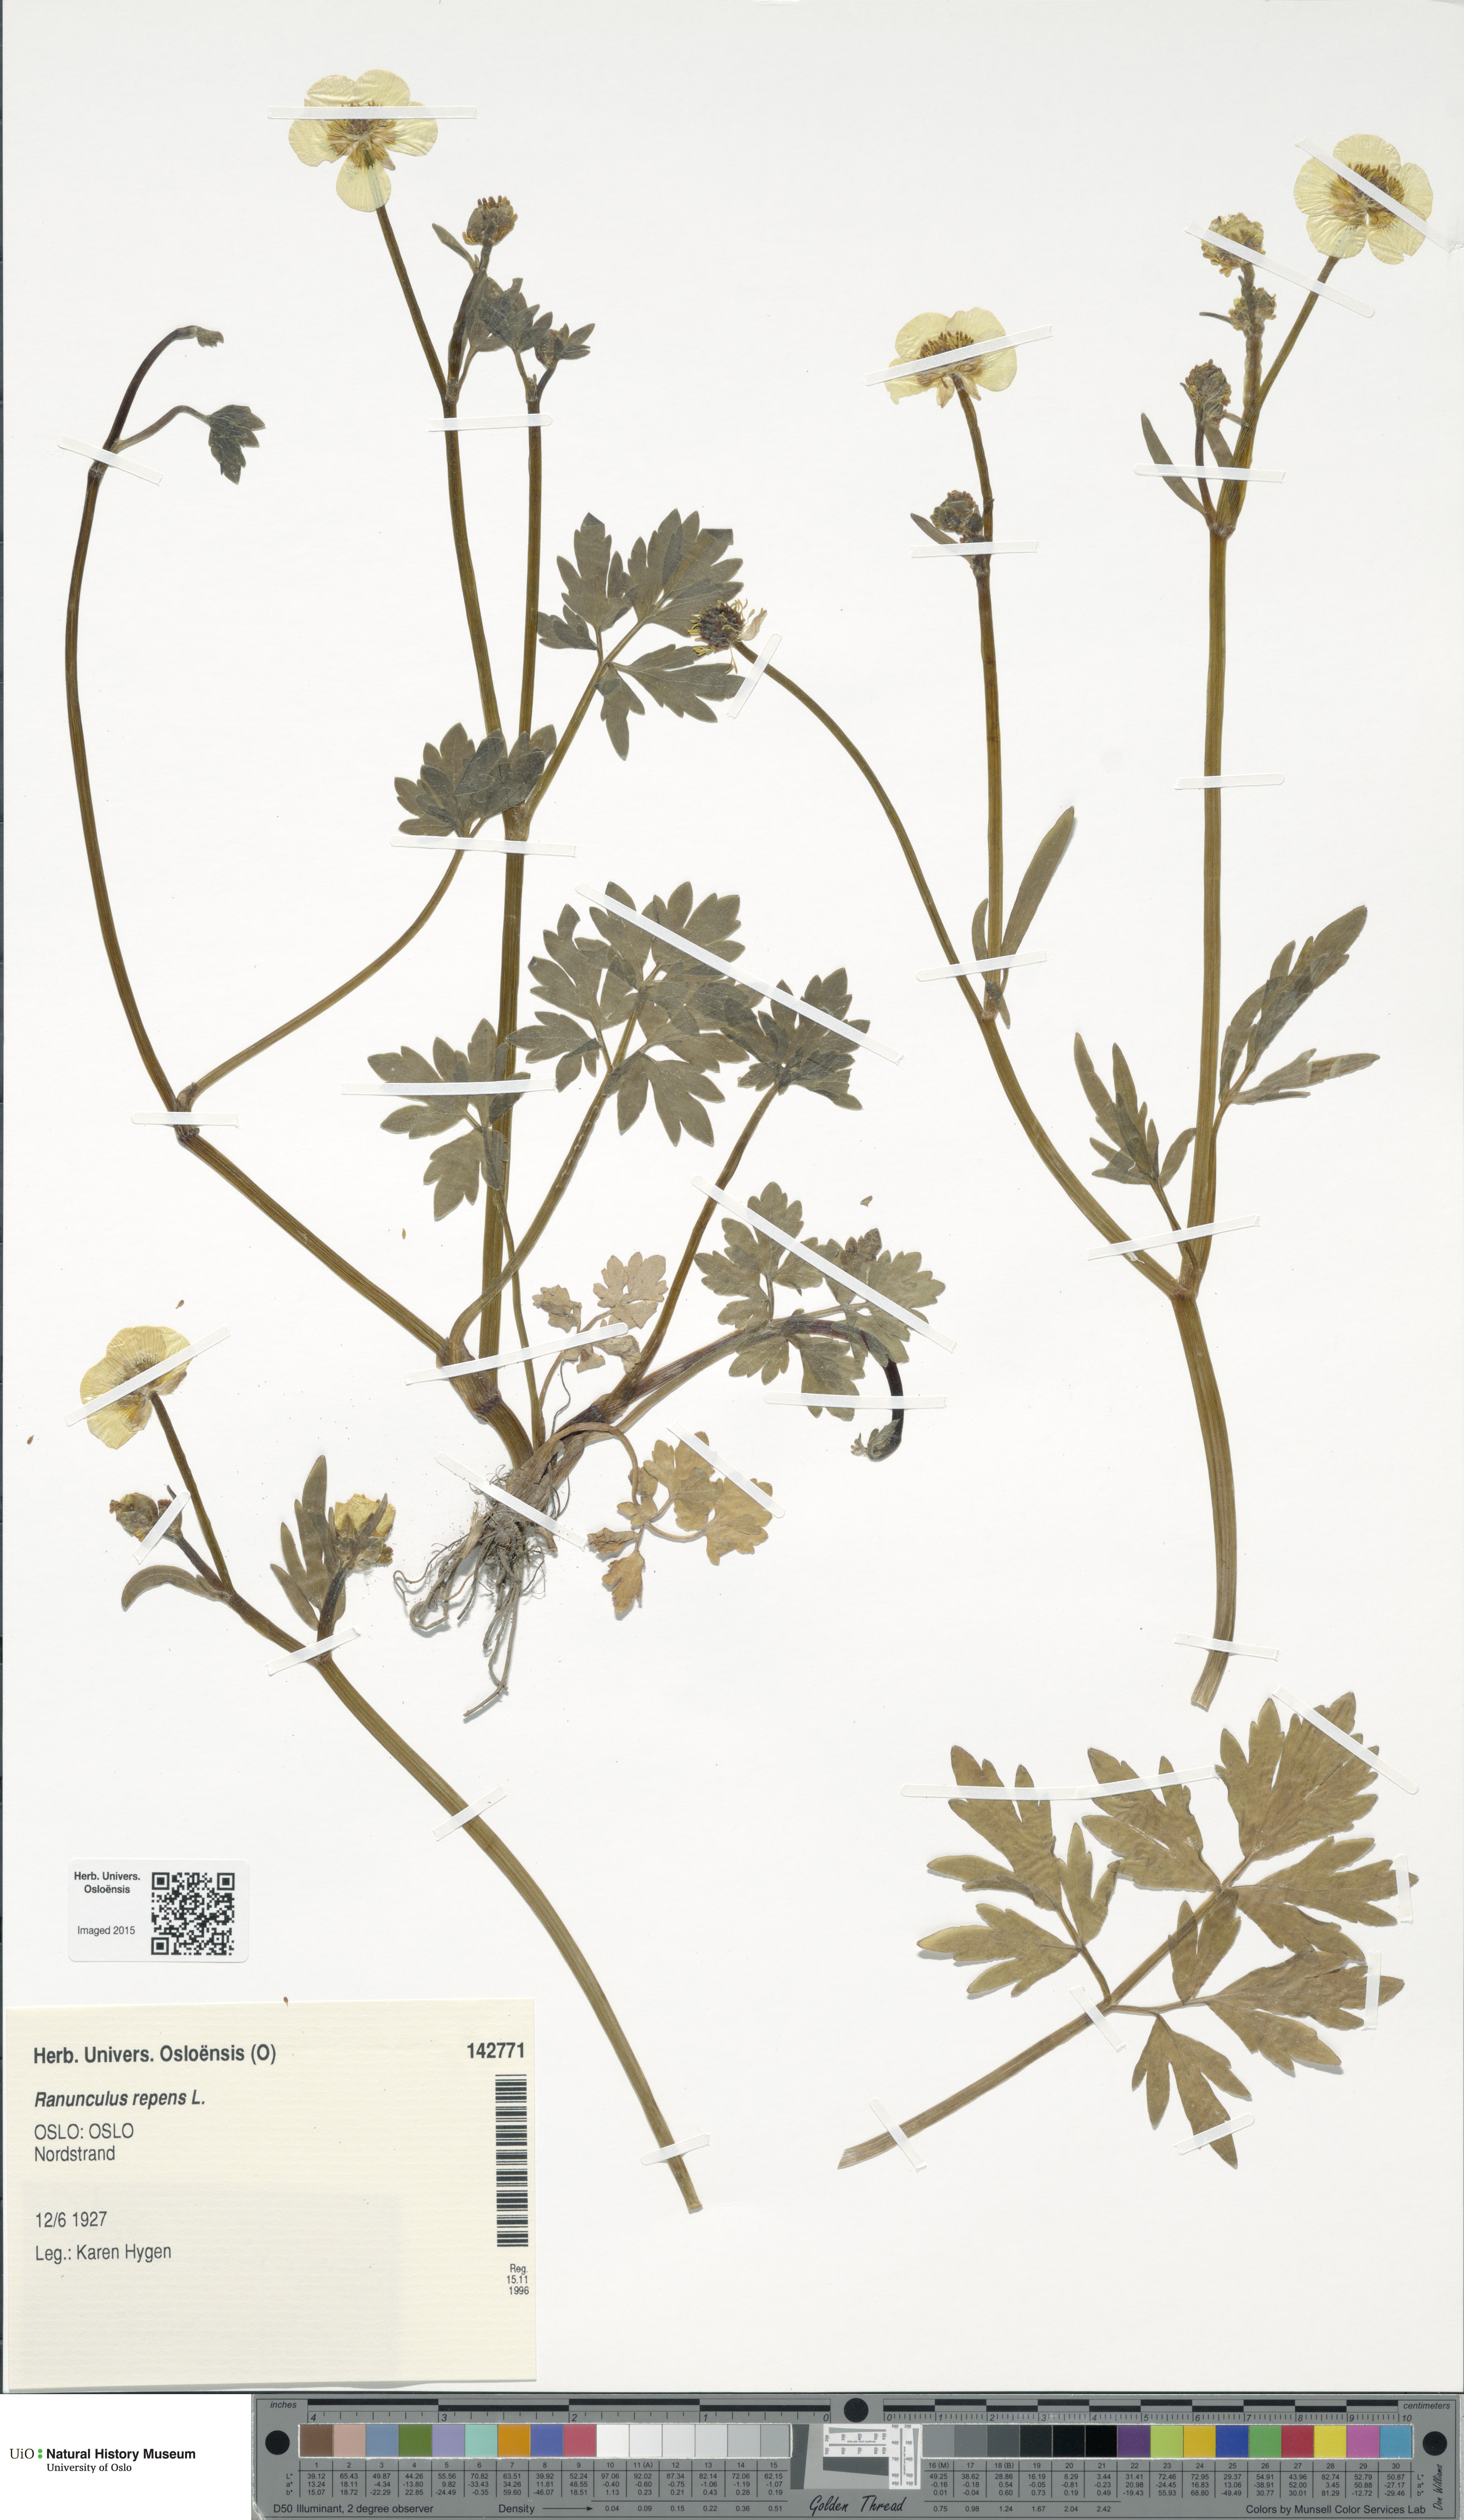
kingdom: Plantae
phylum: Tracheophyta
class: Magnoliopsida
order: Ranunculales
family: Ranunculaceae
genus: Ranunculus
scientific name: Ranunculus repens
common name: Creeping buttercup
